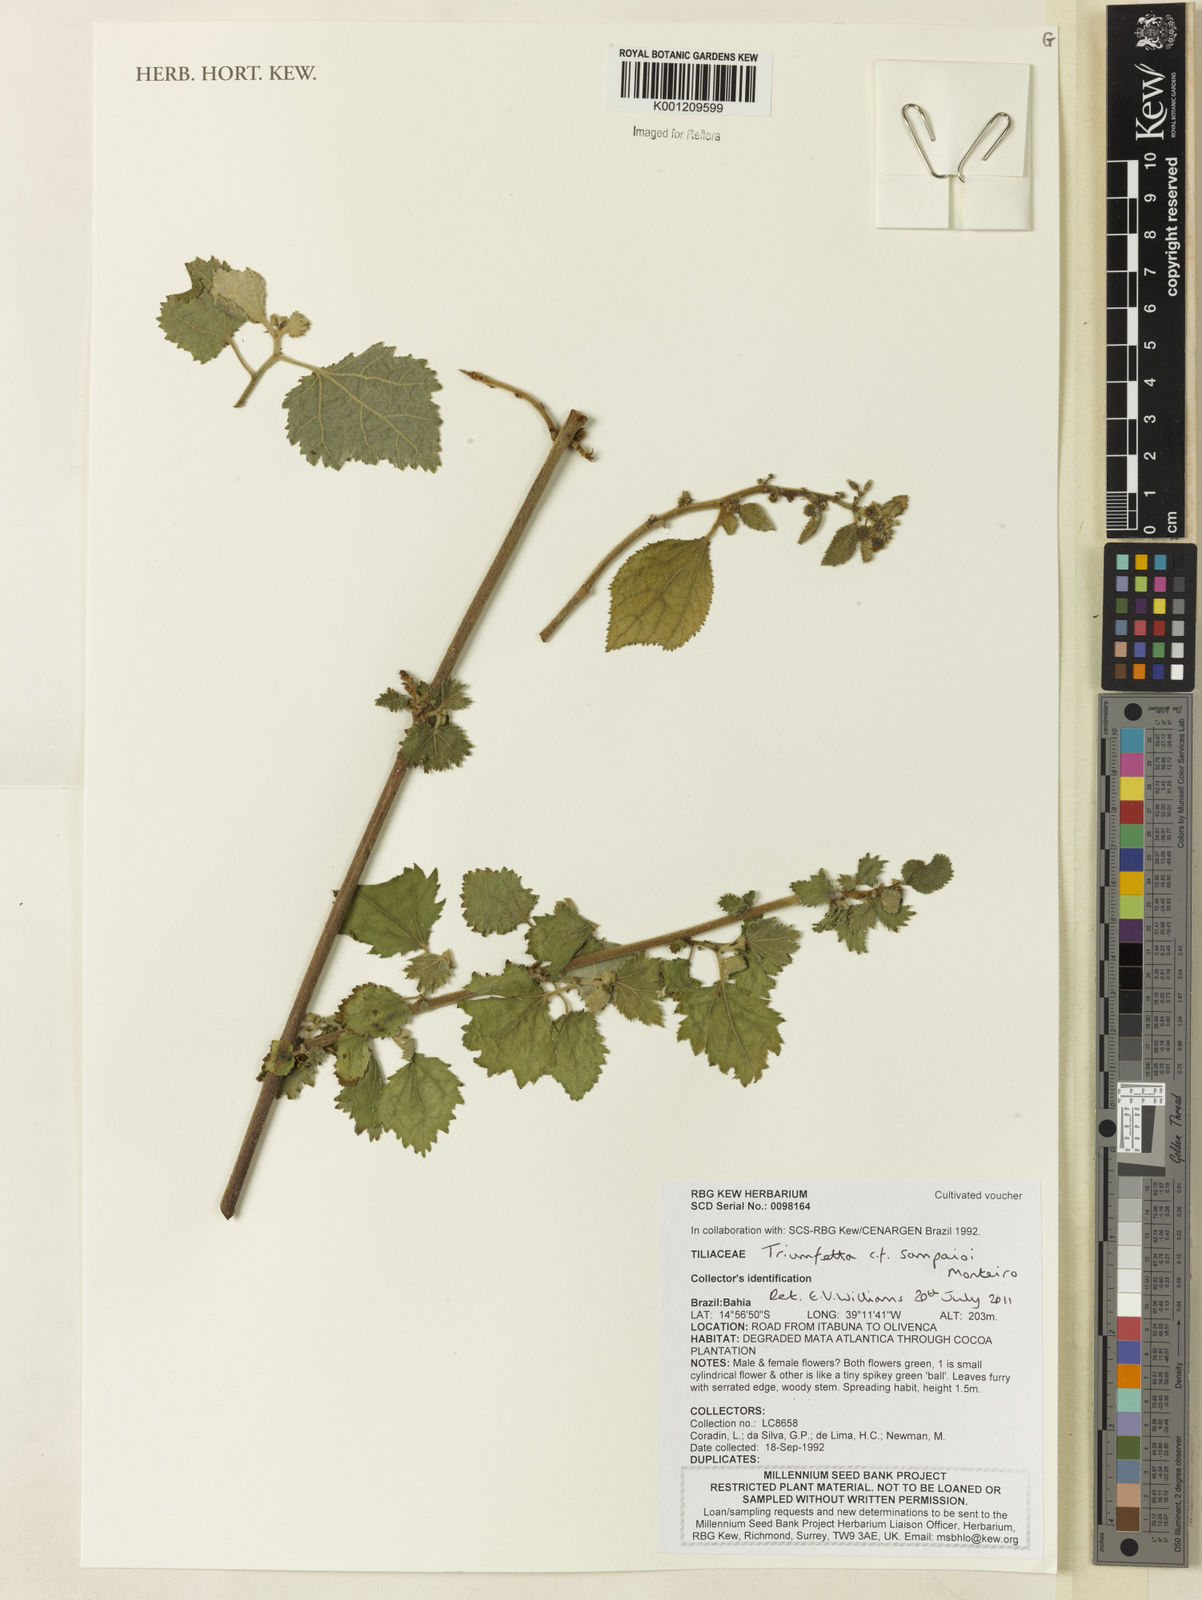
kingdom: Plantae
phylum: Tracheophyta
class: Magnoliopsida
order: Malvales
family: Malvaceae
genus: Triumfetta
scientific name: Triumfetta sampaioi
